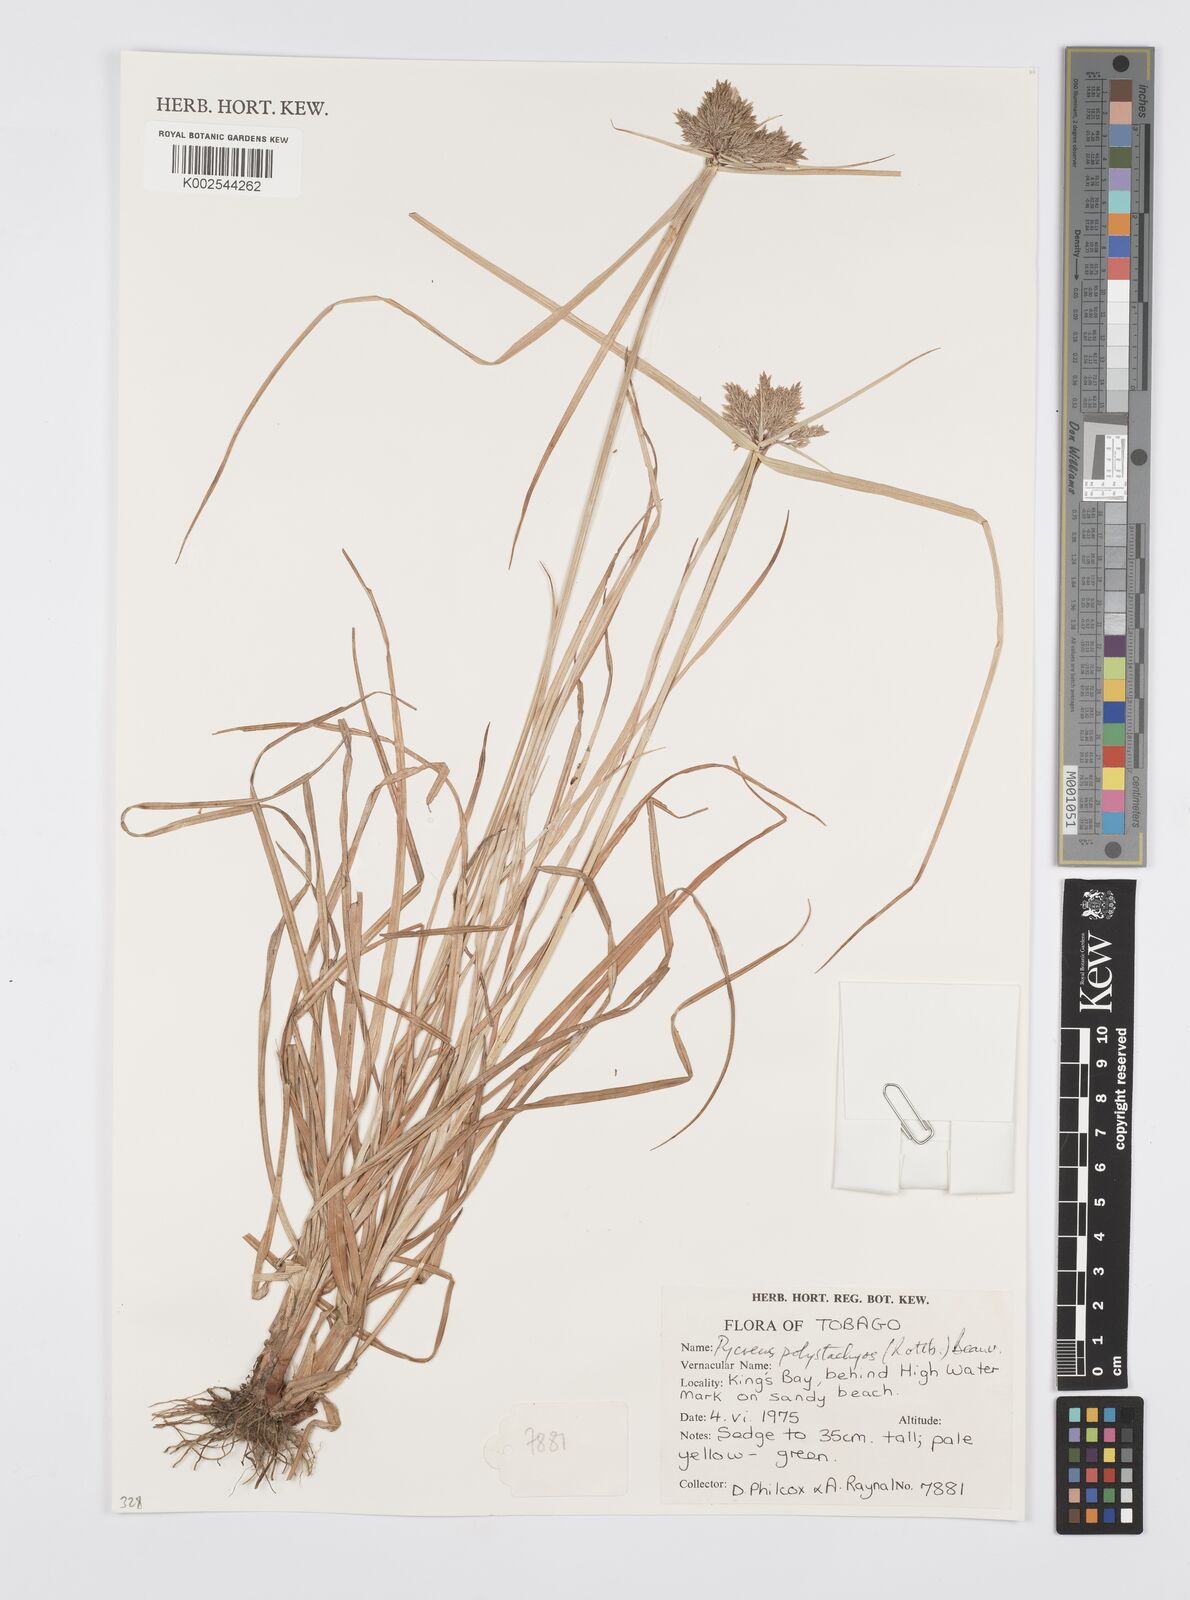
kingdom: Plantae
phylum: Tracheophyta
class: Liliopsida
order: Poales
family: Cyperaceae
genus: Cyperus
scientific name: Cyperus polystachyos
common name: Bunchy flat sedge
